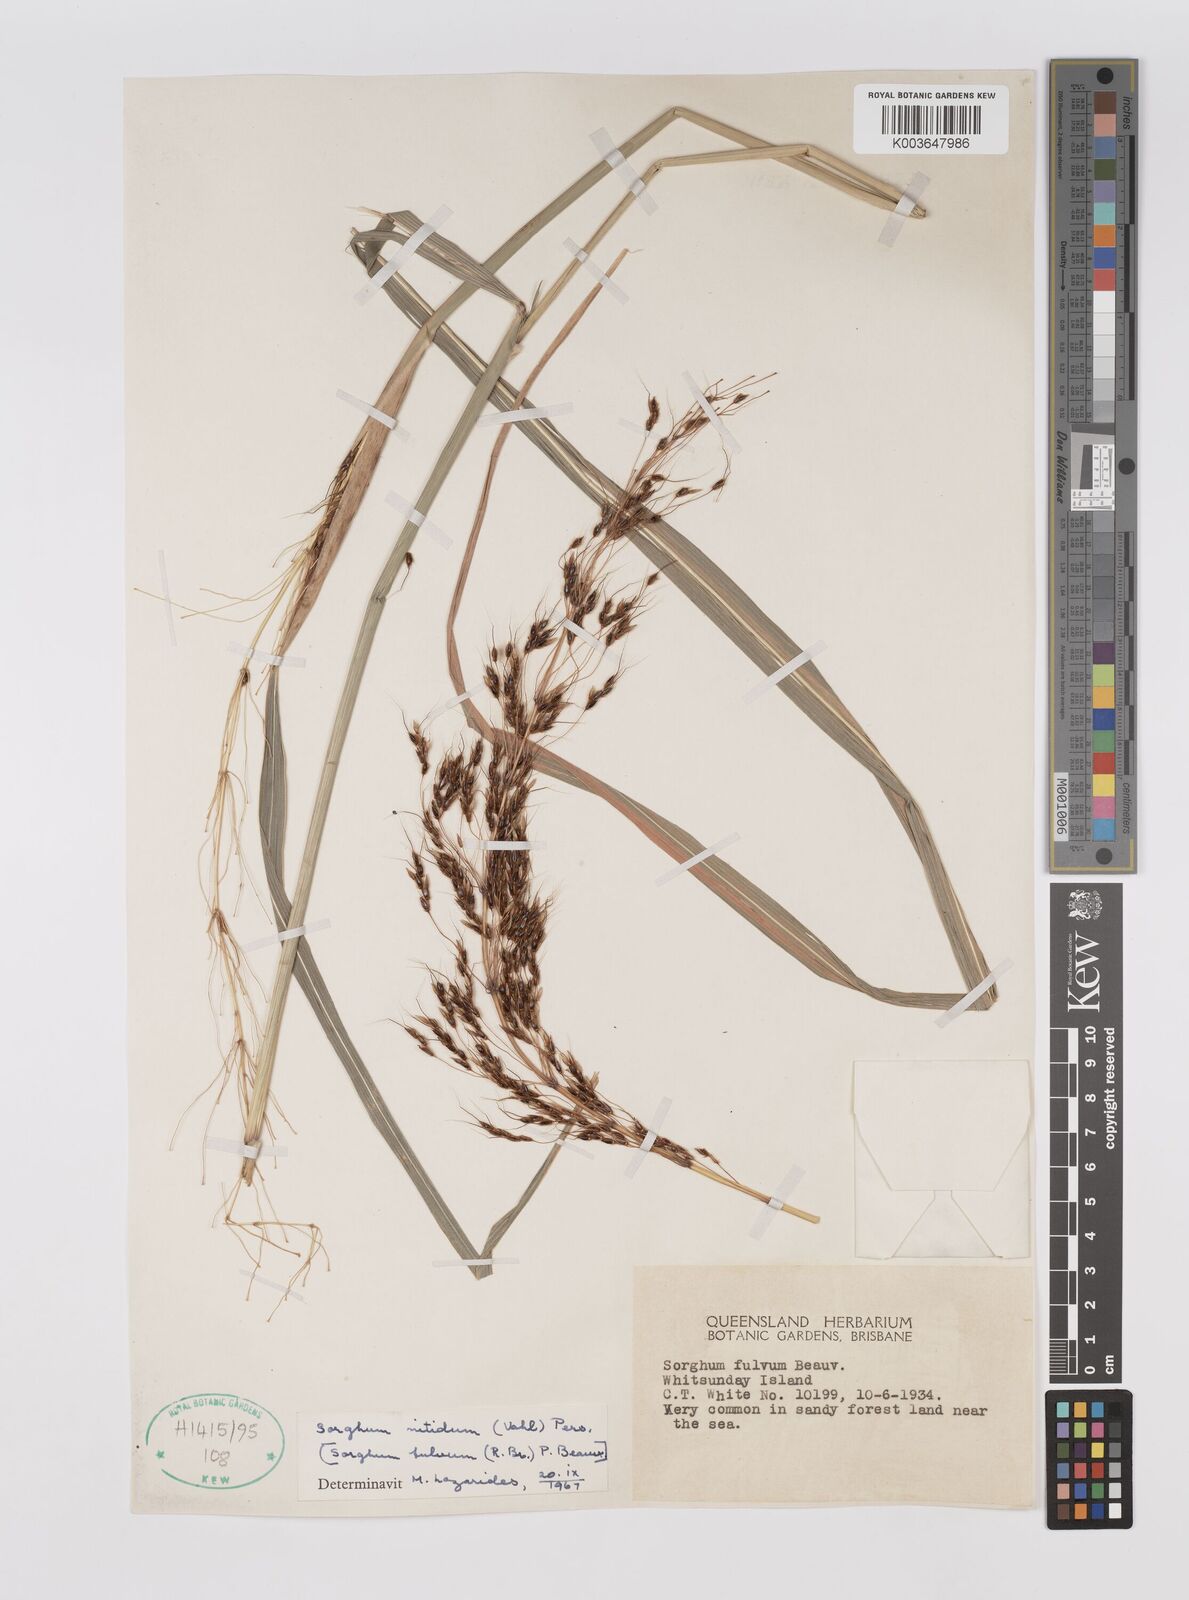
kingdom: Plantae
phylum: Tracheophyta
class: Liliopsida
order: Poales
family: Poaceae
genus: Sorghum
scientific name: Sorghum nitidum
